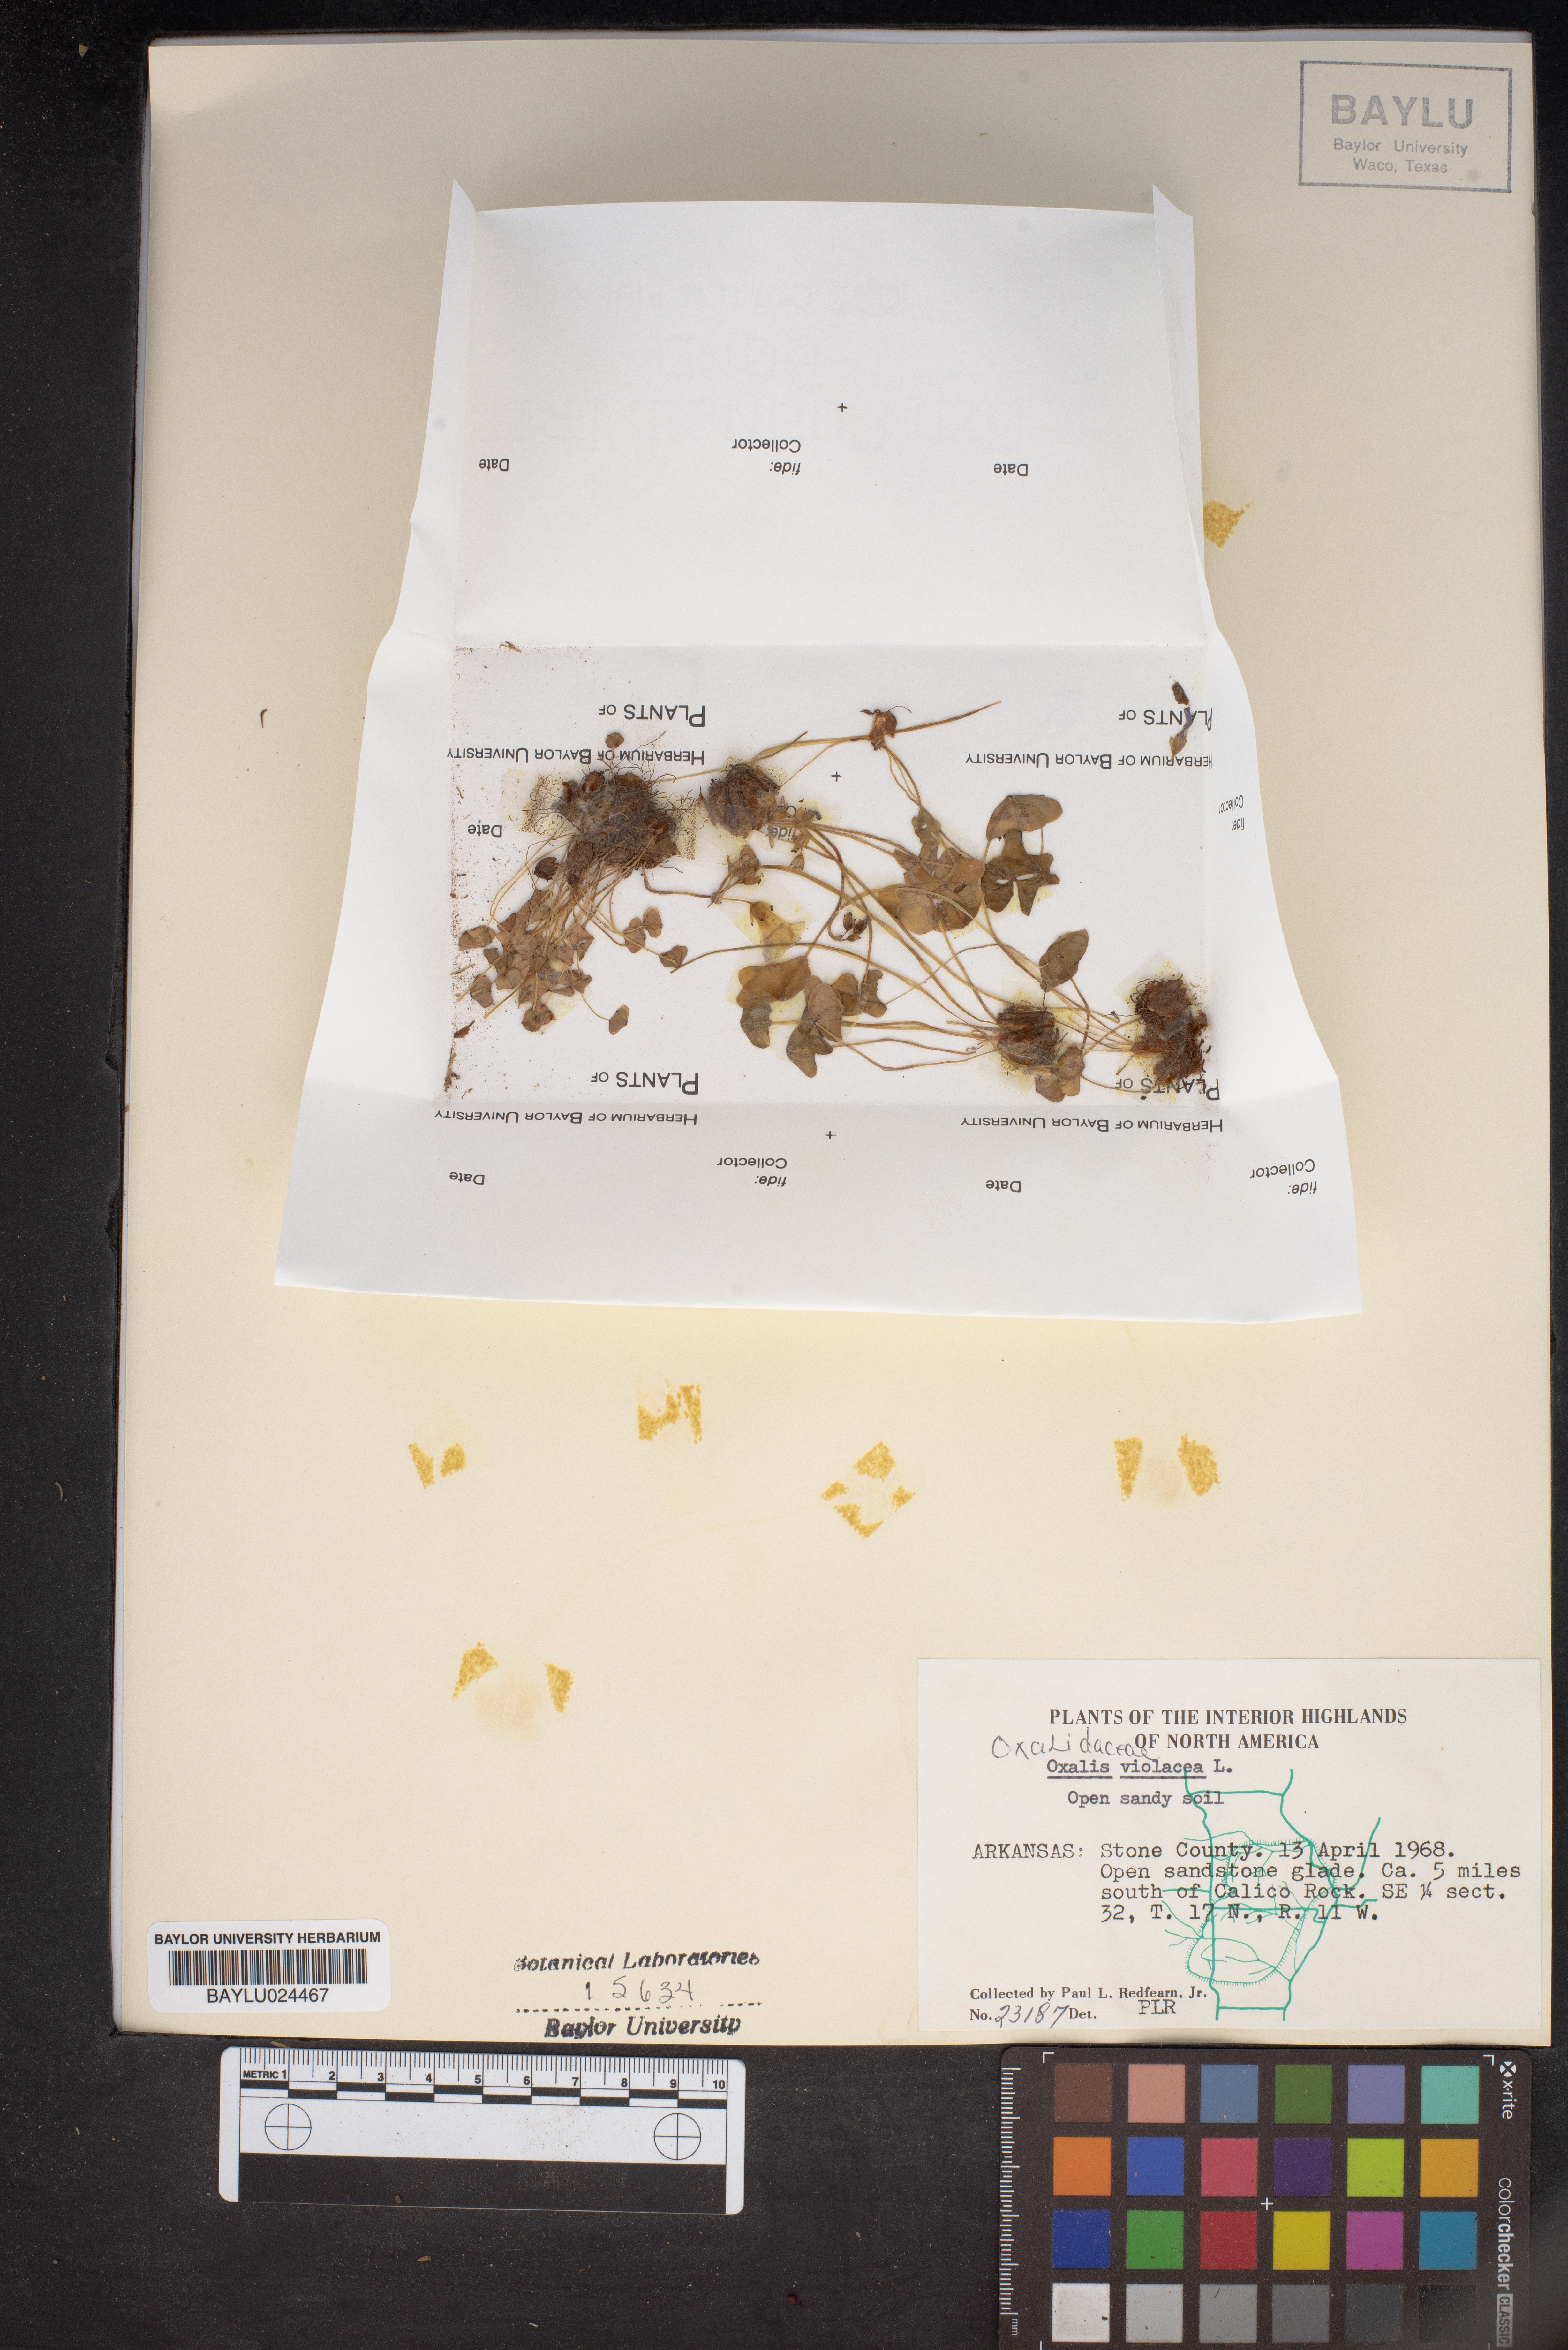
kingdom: Plantae
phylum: Tracheophyta
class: Magnoliopsida
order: Oxalidales
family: Oxalidaceae
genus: Oxalis
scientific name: Oxalis violacea
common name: Violet wood-sorrel
